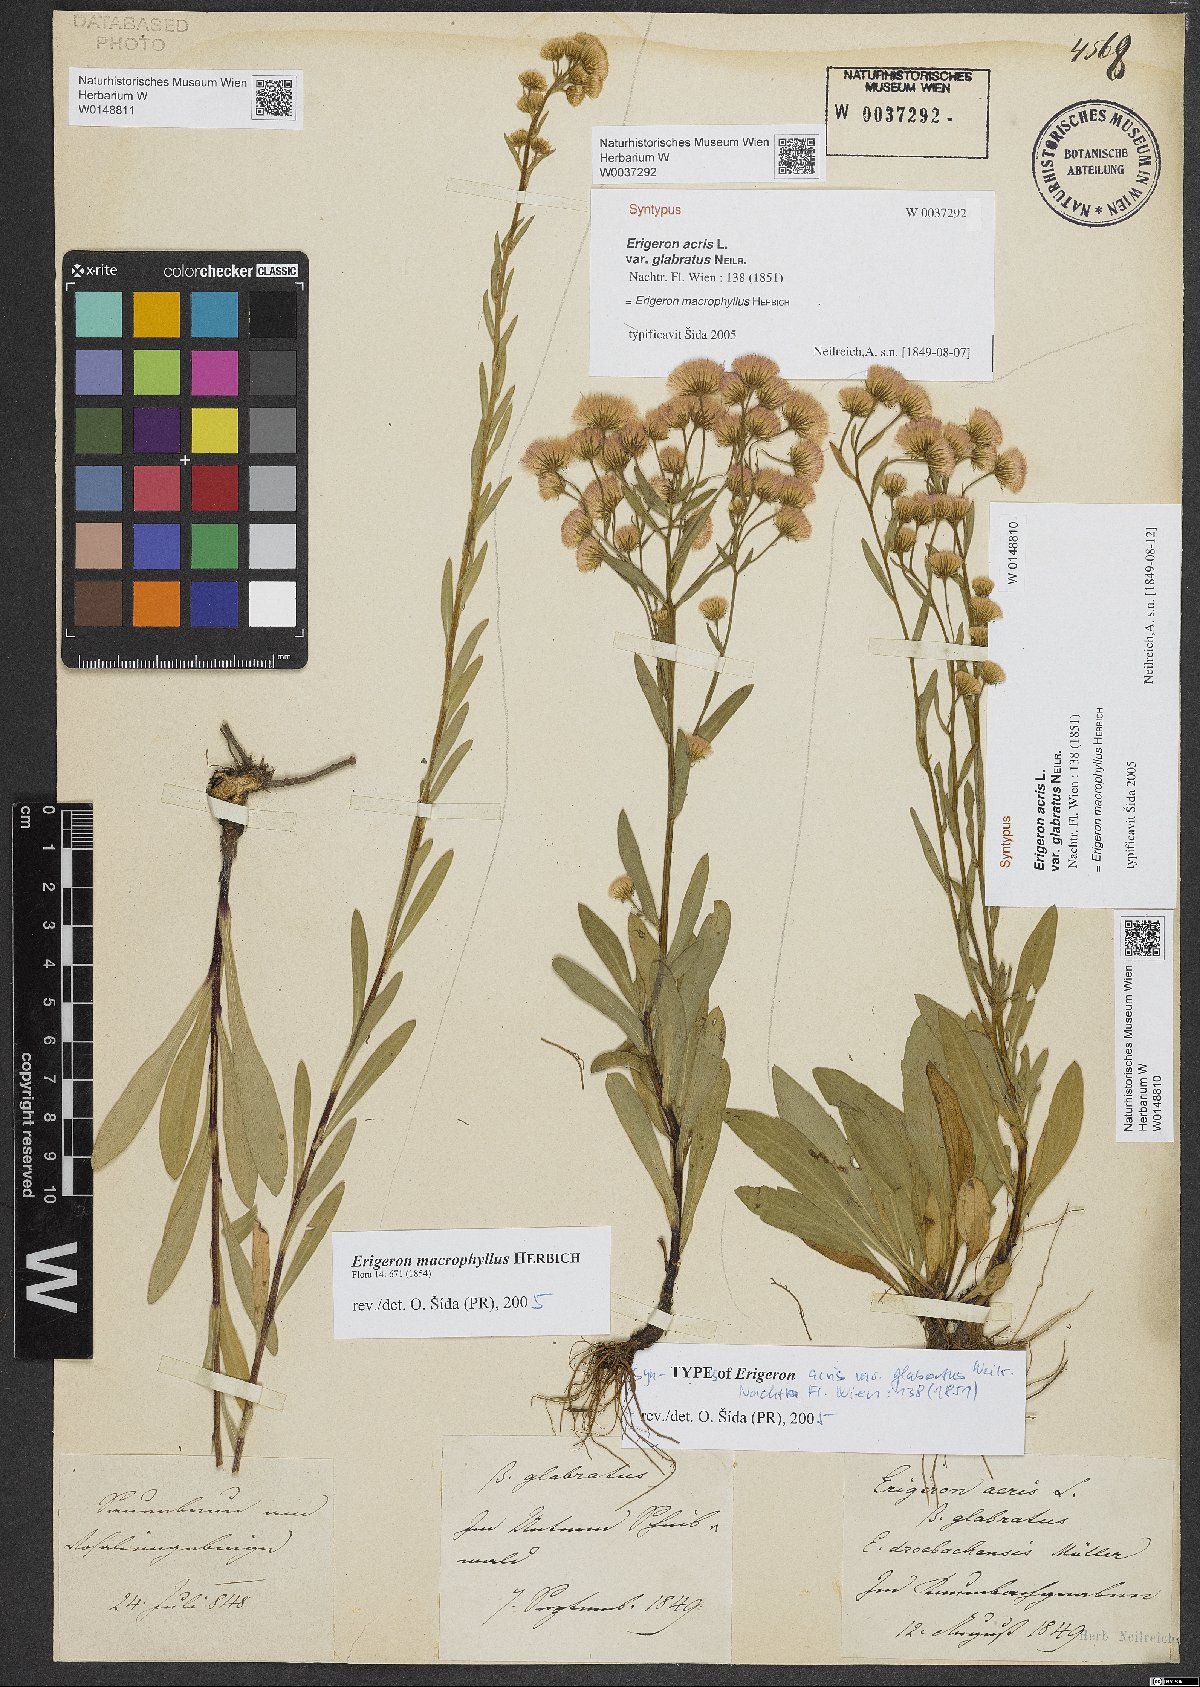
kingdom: Plantae
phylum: Tracheophyta
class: Magnoliopsida
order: Asterales
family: Asteraceae
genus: Erigeron
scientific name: Erigeron macrophyllus
